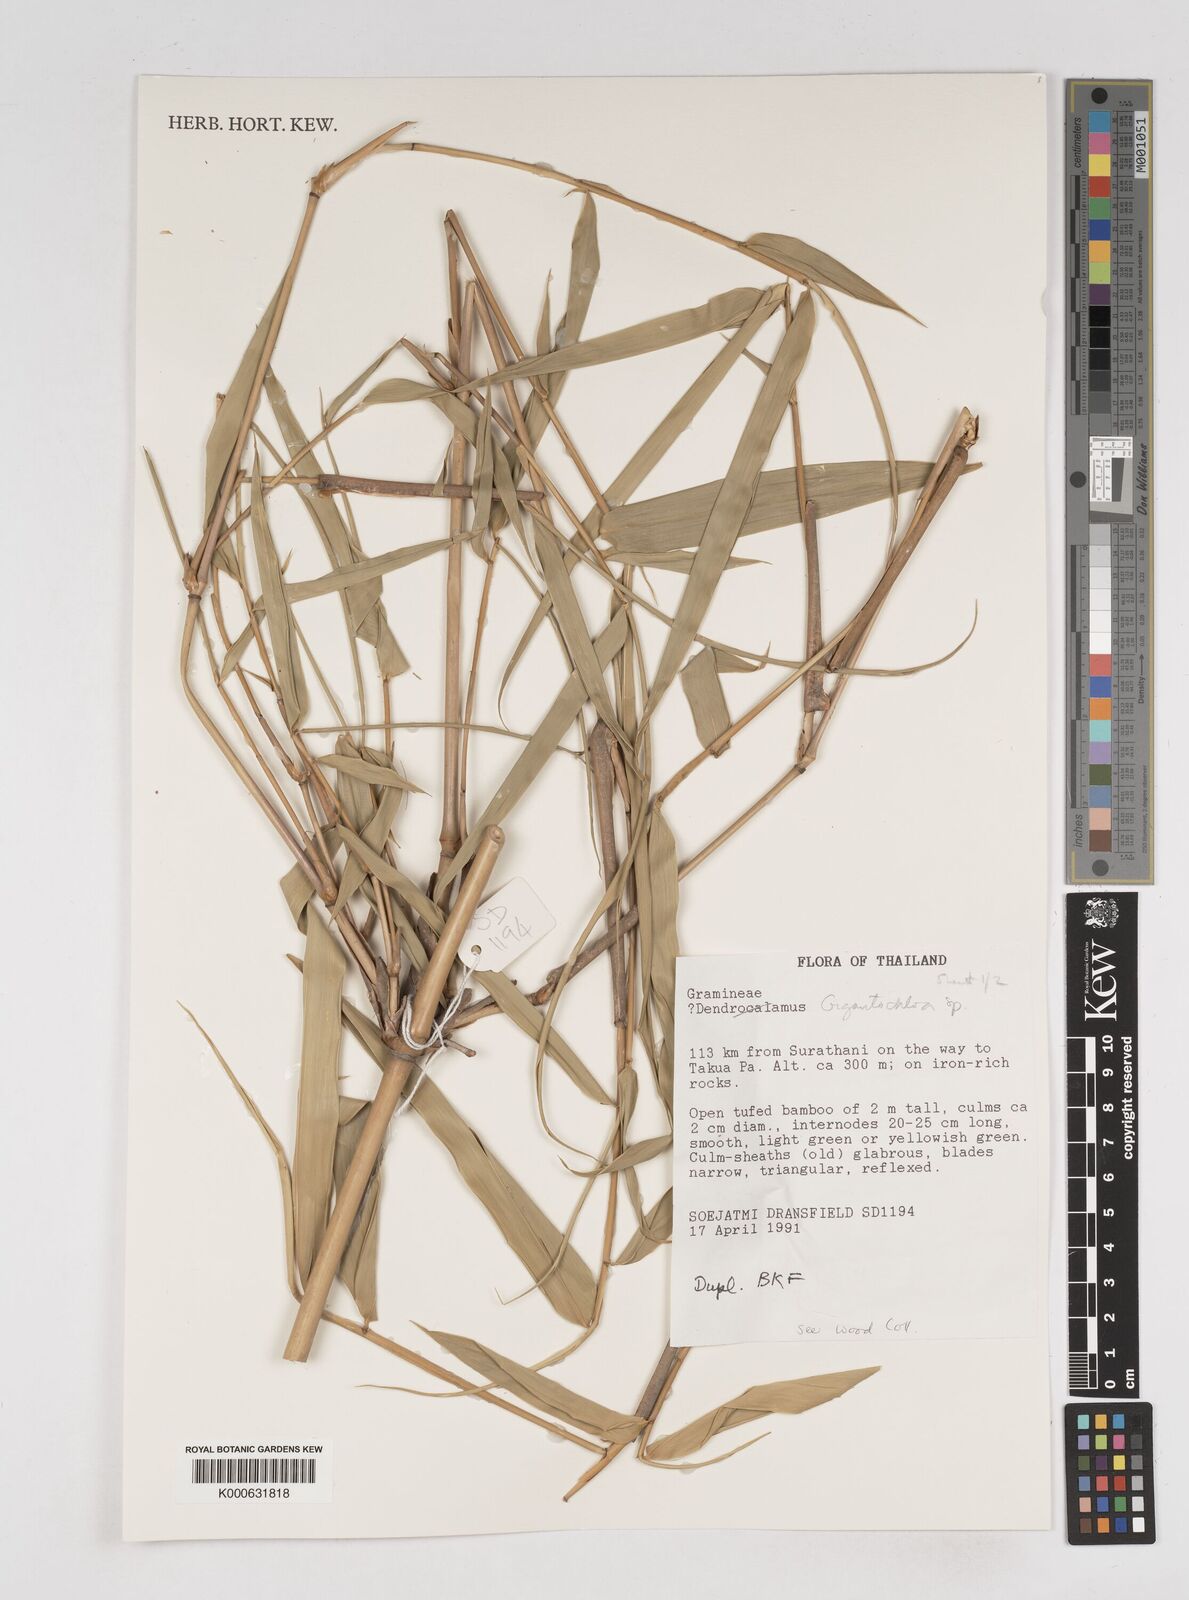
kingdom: Plantae
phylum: Tracheophyta
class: Liliopsida
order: Poales
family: Poaceae
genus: Gigantochloa
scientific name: Gigantochloa
